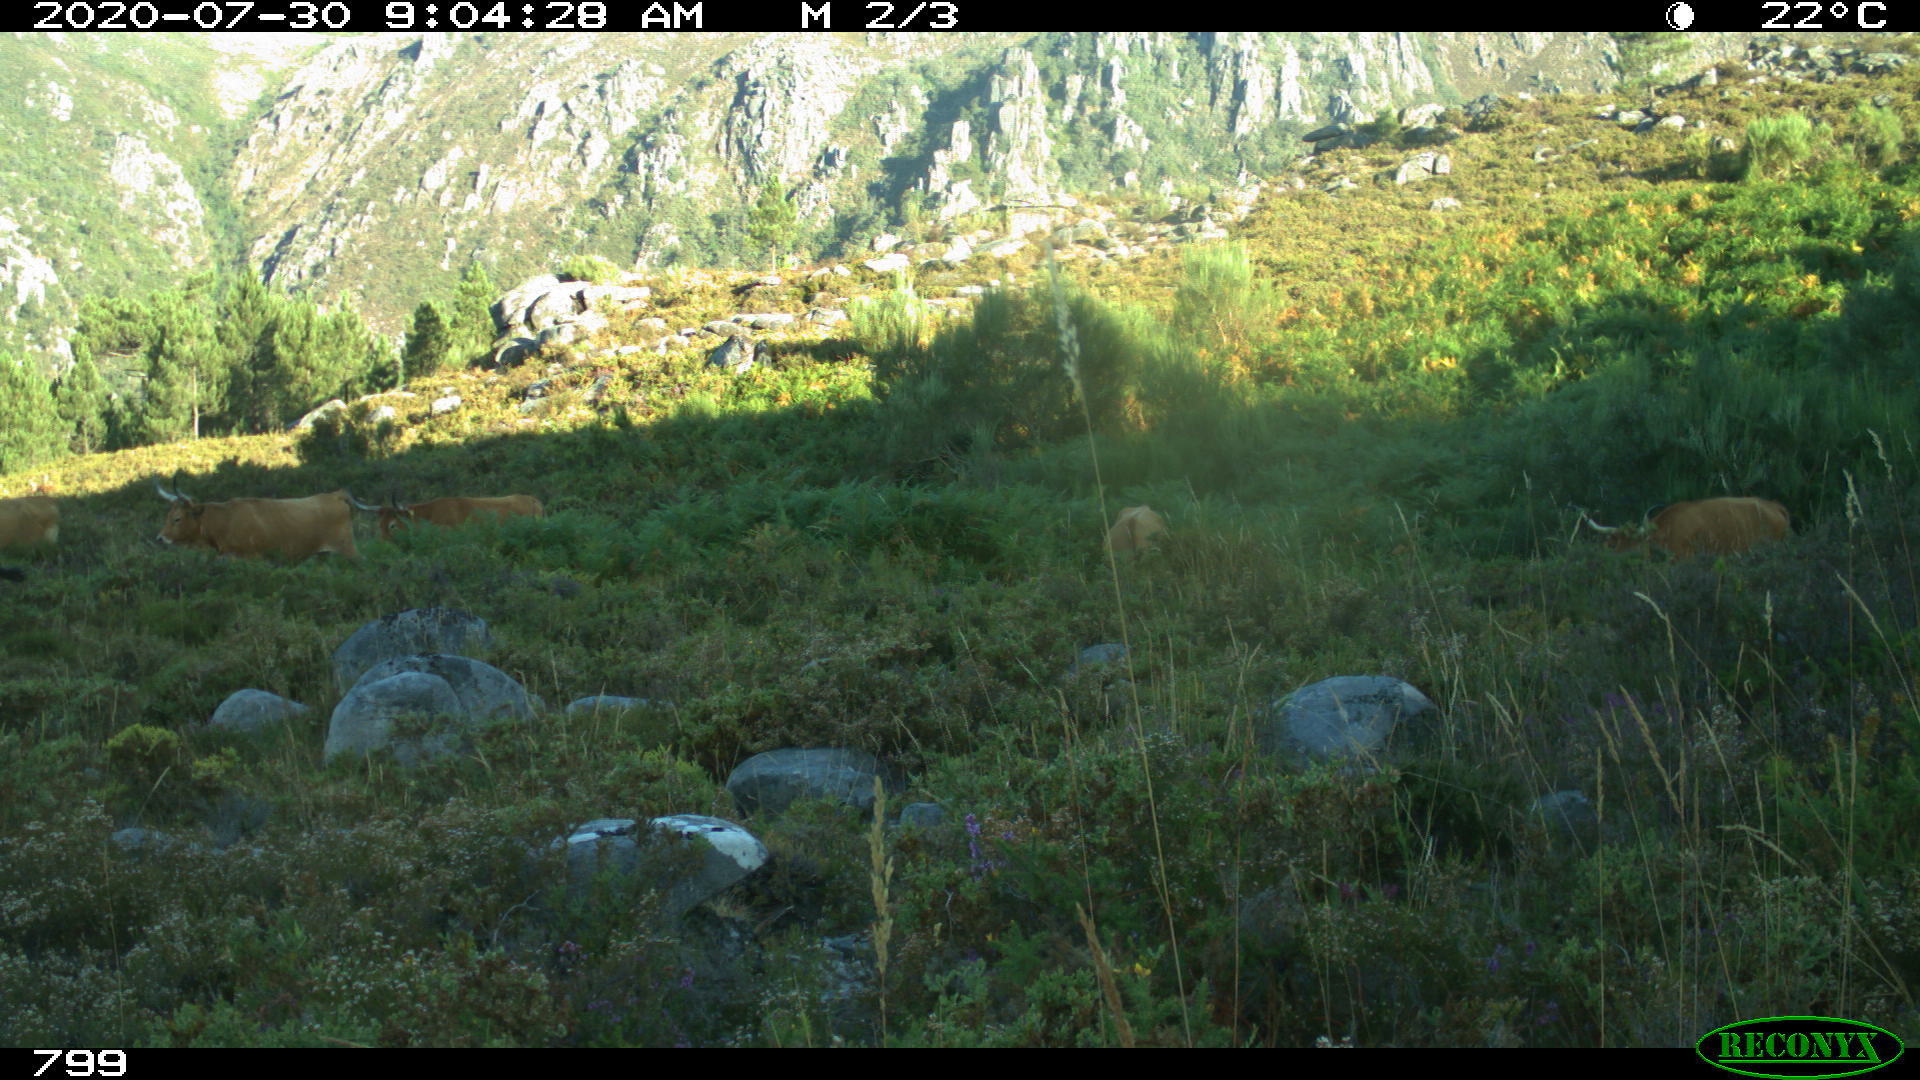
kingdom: Animalia
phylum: Chordata
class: Mammalia
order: Artiodactyla
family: Bovidae
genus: Bos
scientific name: Bos taurus
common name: Domesticated cattle
